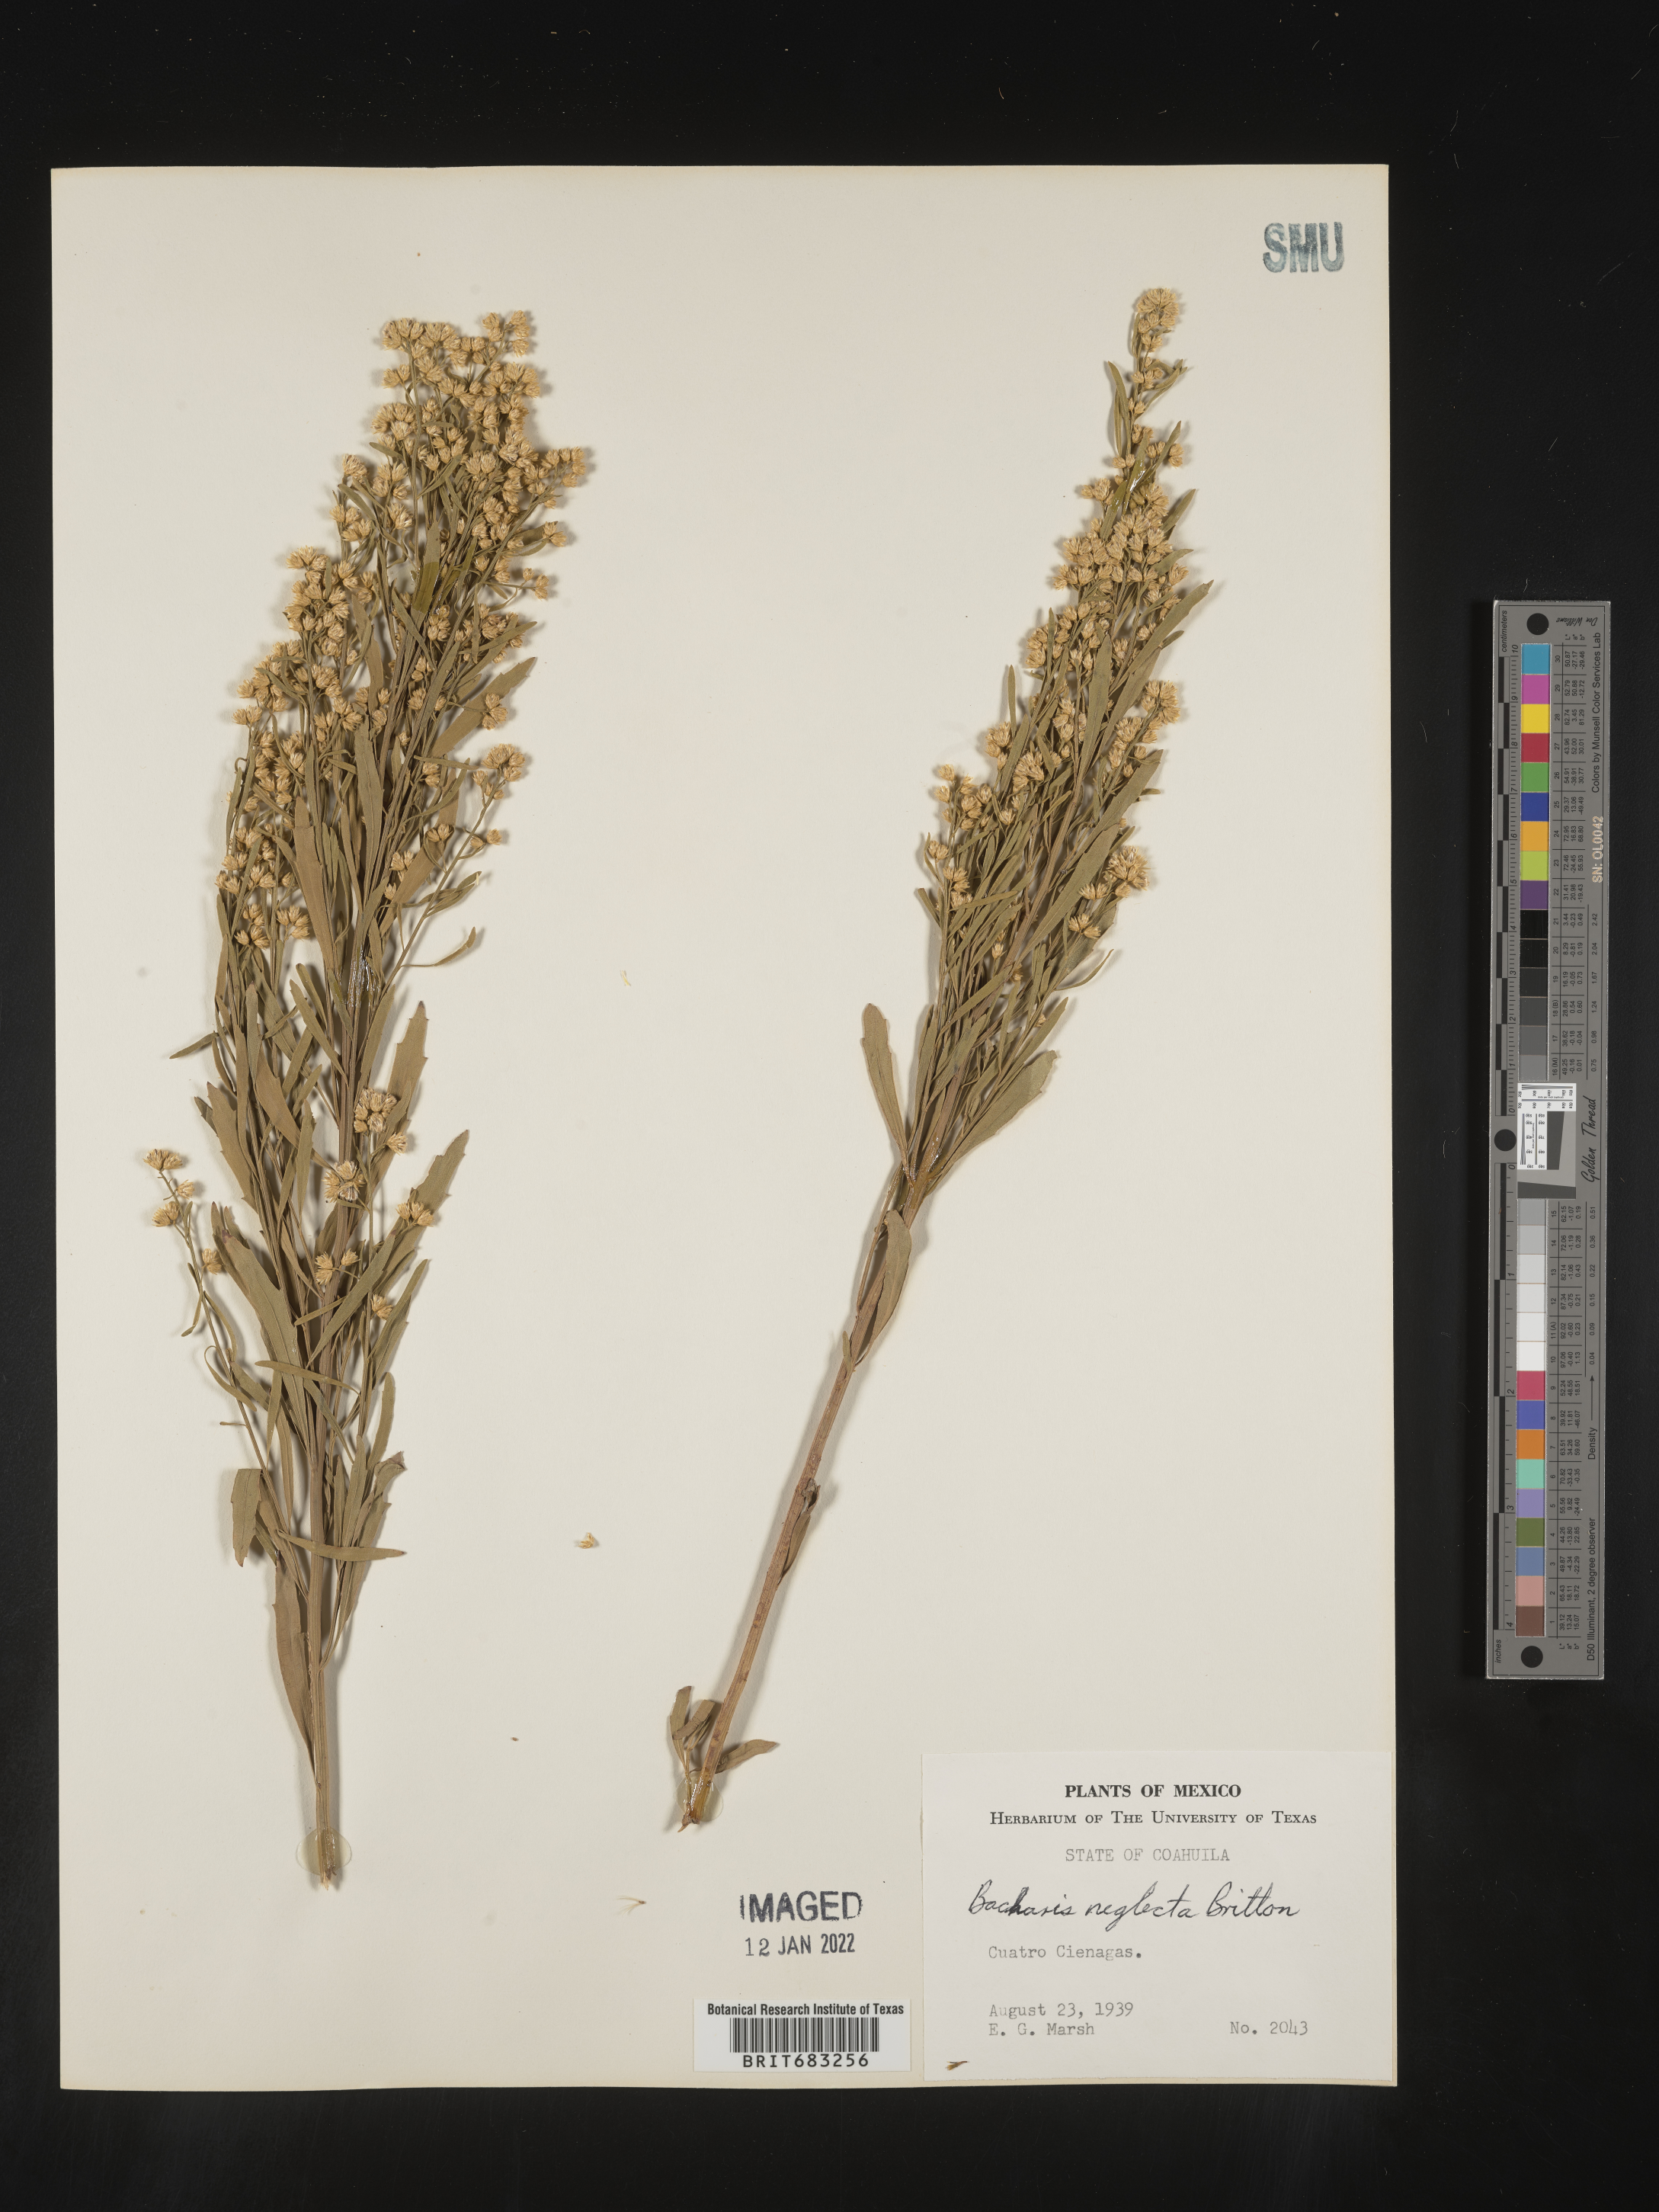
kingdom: Plantae
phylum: Tracheophyta
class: Magnoliopsida
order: Asterales
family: Asteraceae
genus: Baccharis
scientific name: Baccharis neglecta
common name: Roosevelt-weed
